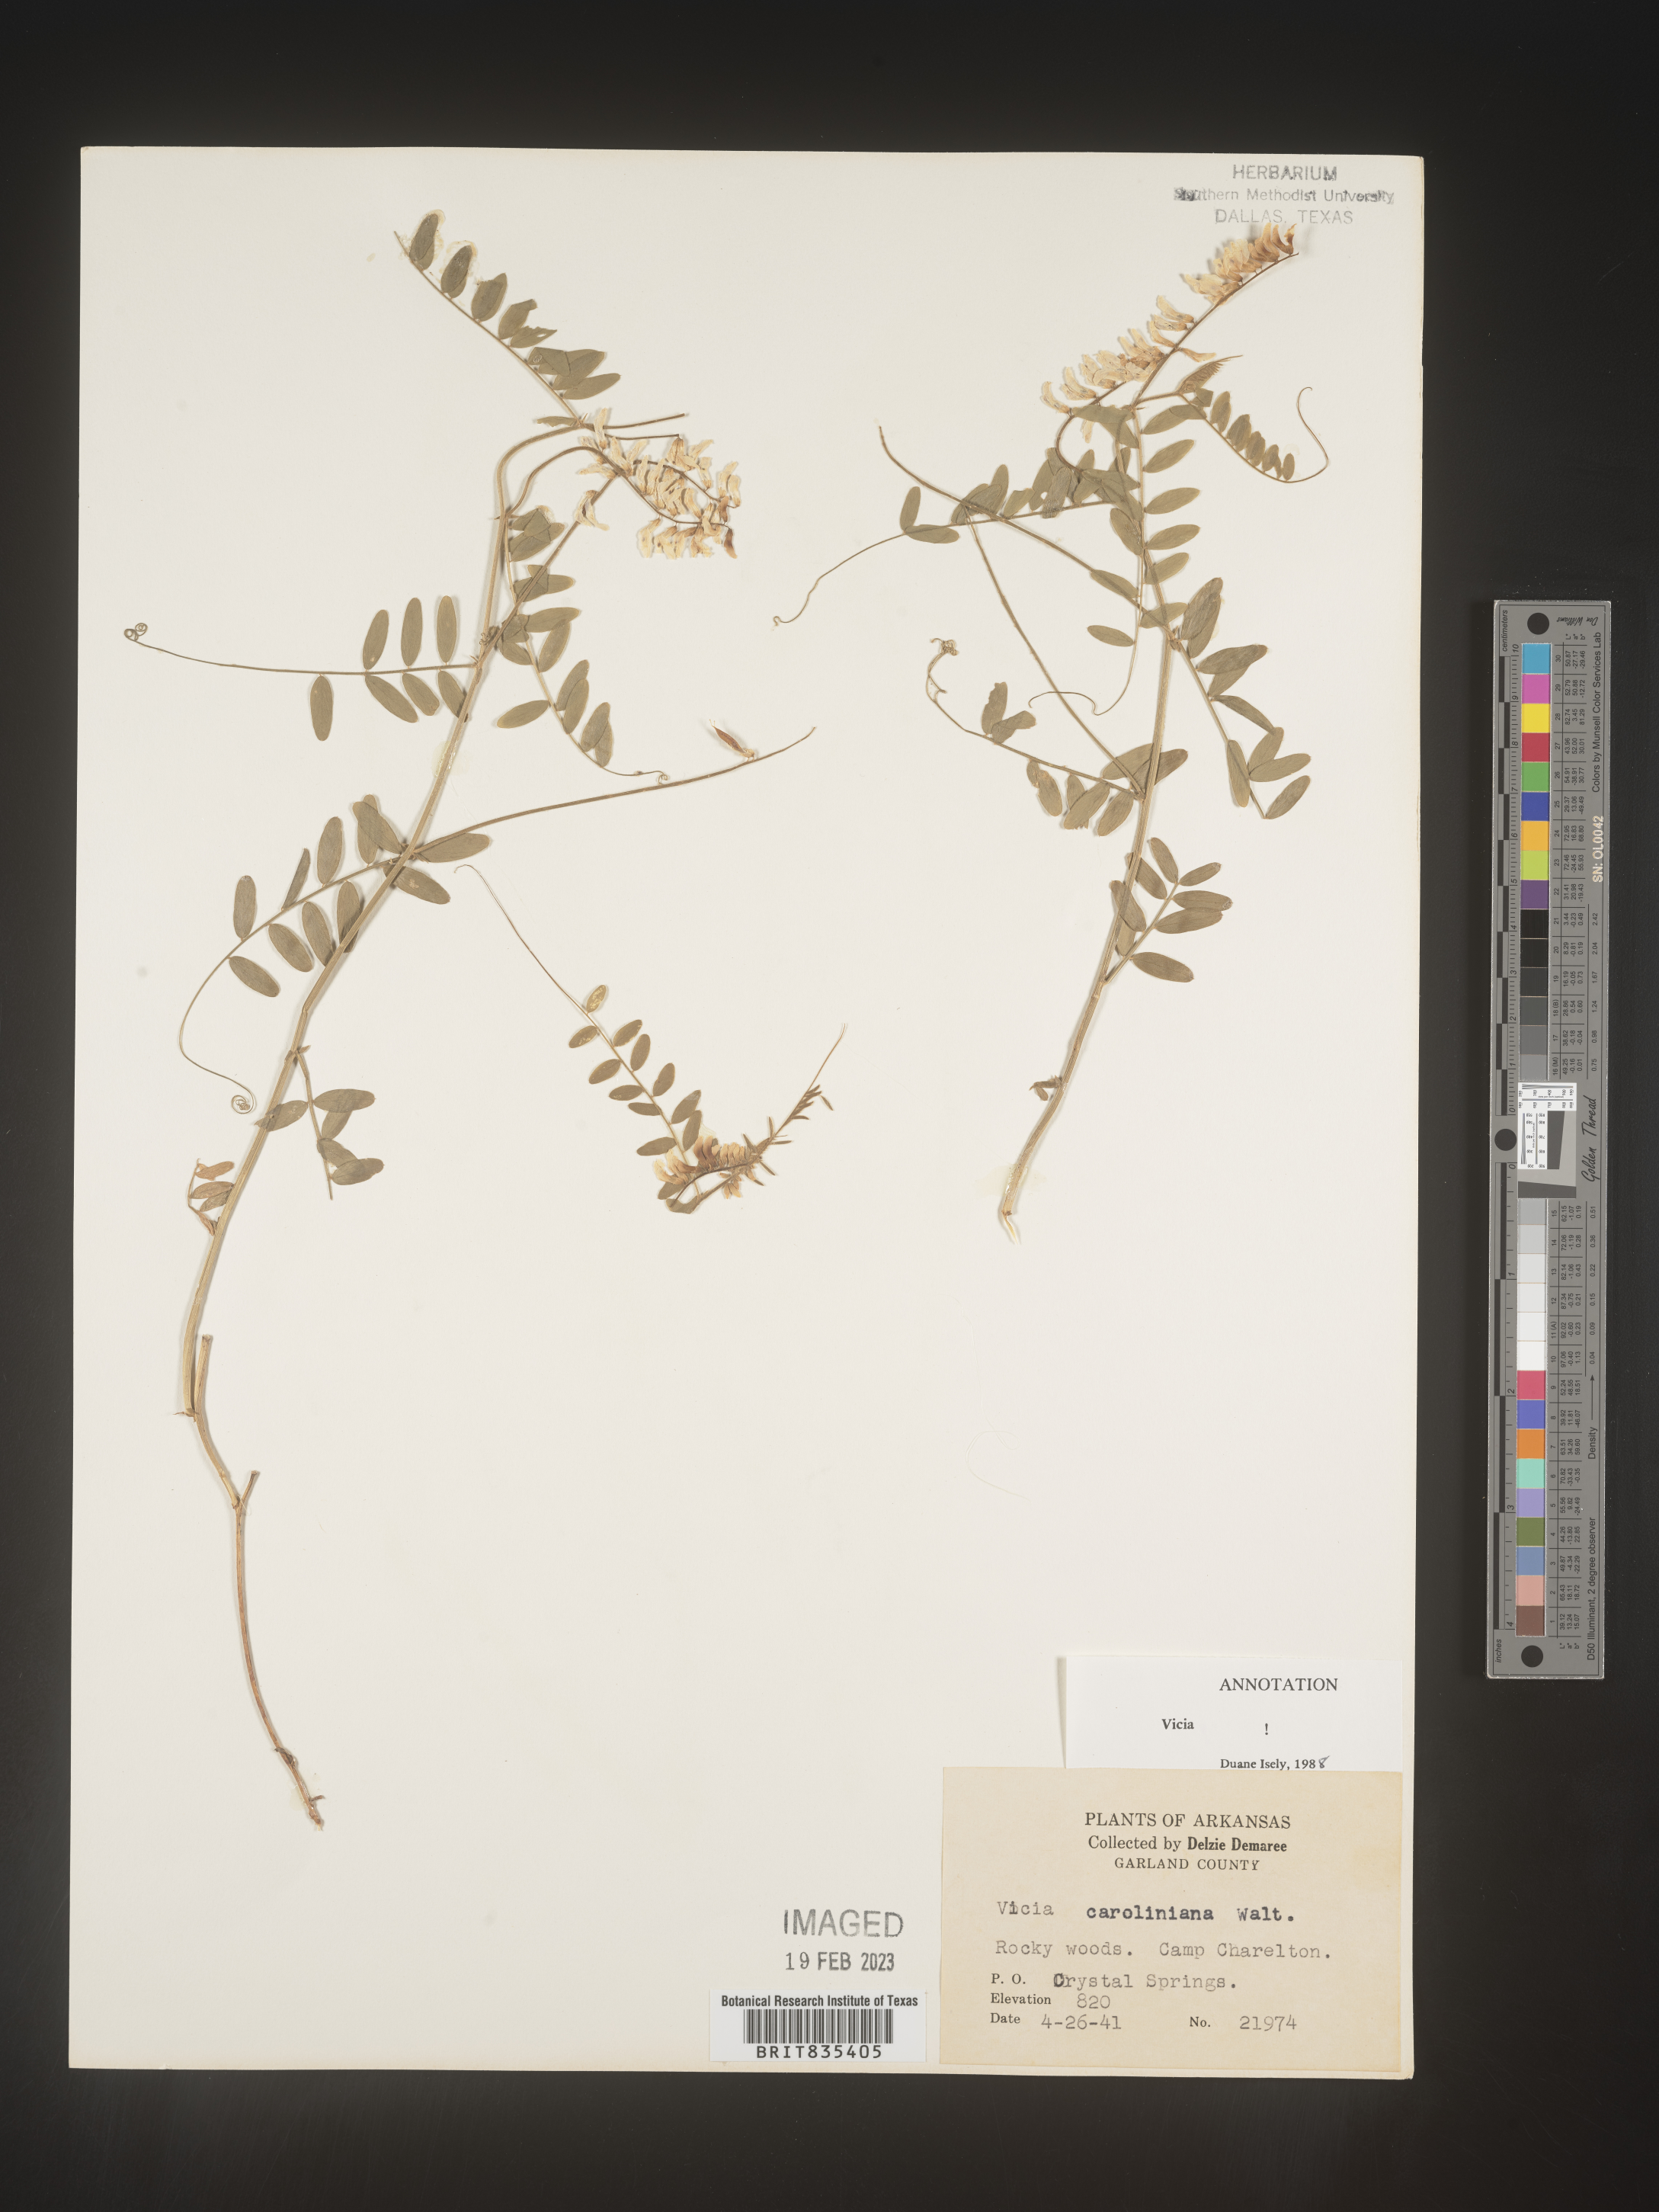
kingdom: Plantae
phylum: Tracheophyta
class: Magnoliopsida
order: Fabales
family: Fabaceae
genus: Vicia
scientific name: Vicia caroliniana
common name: Carolina vetch
